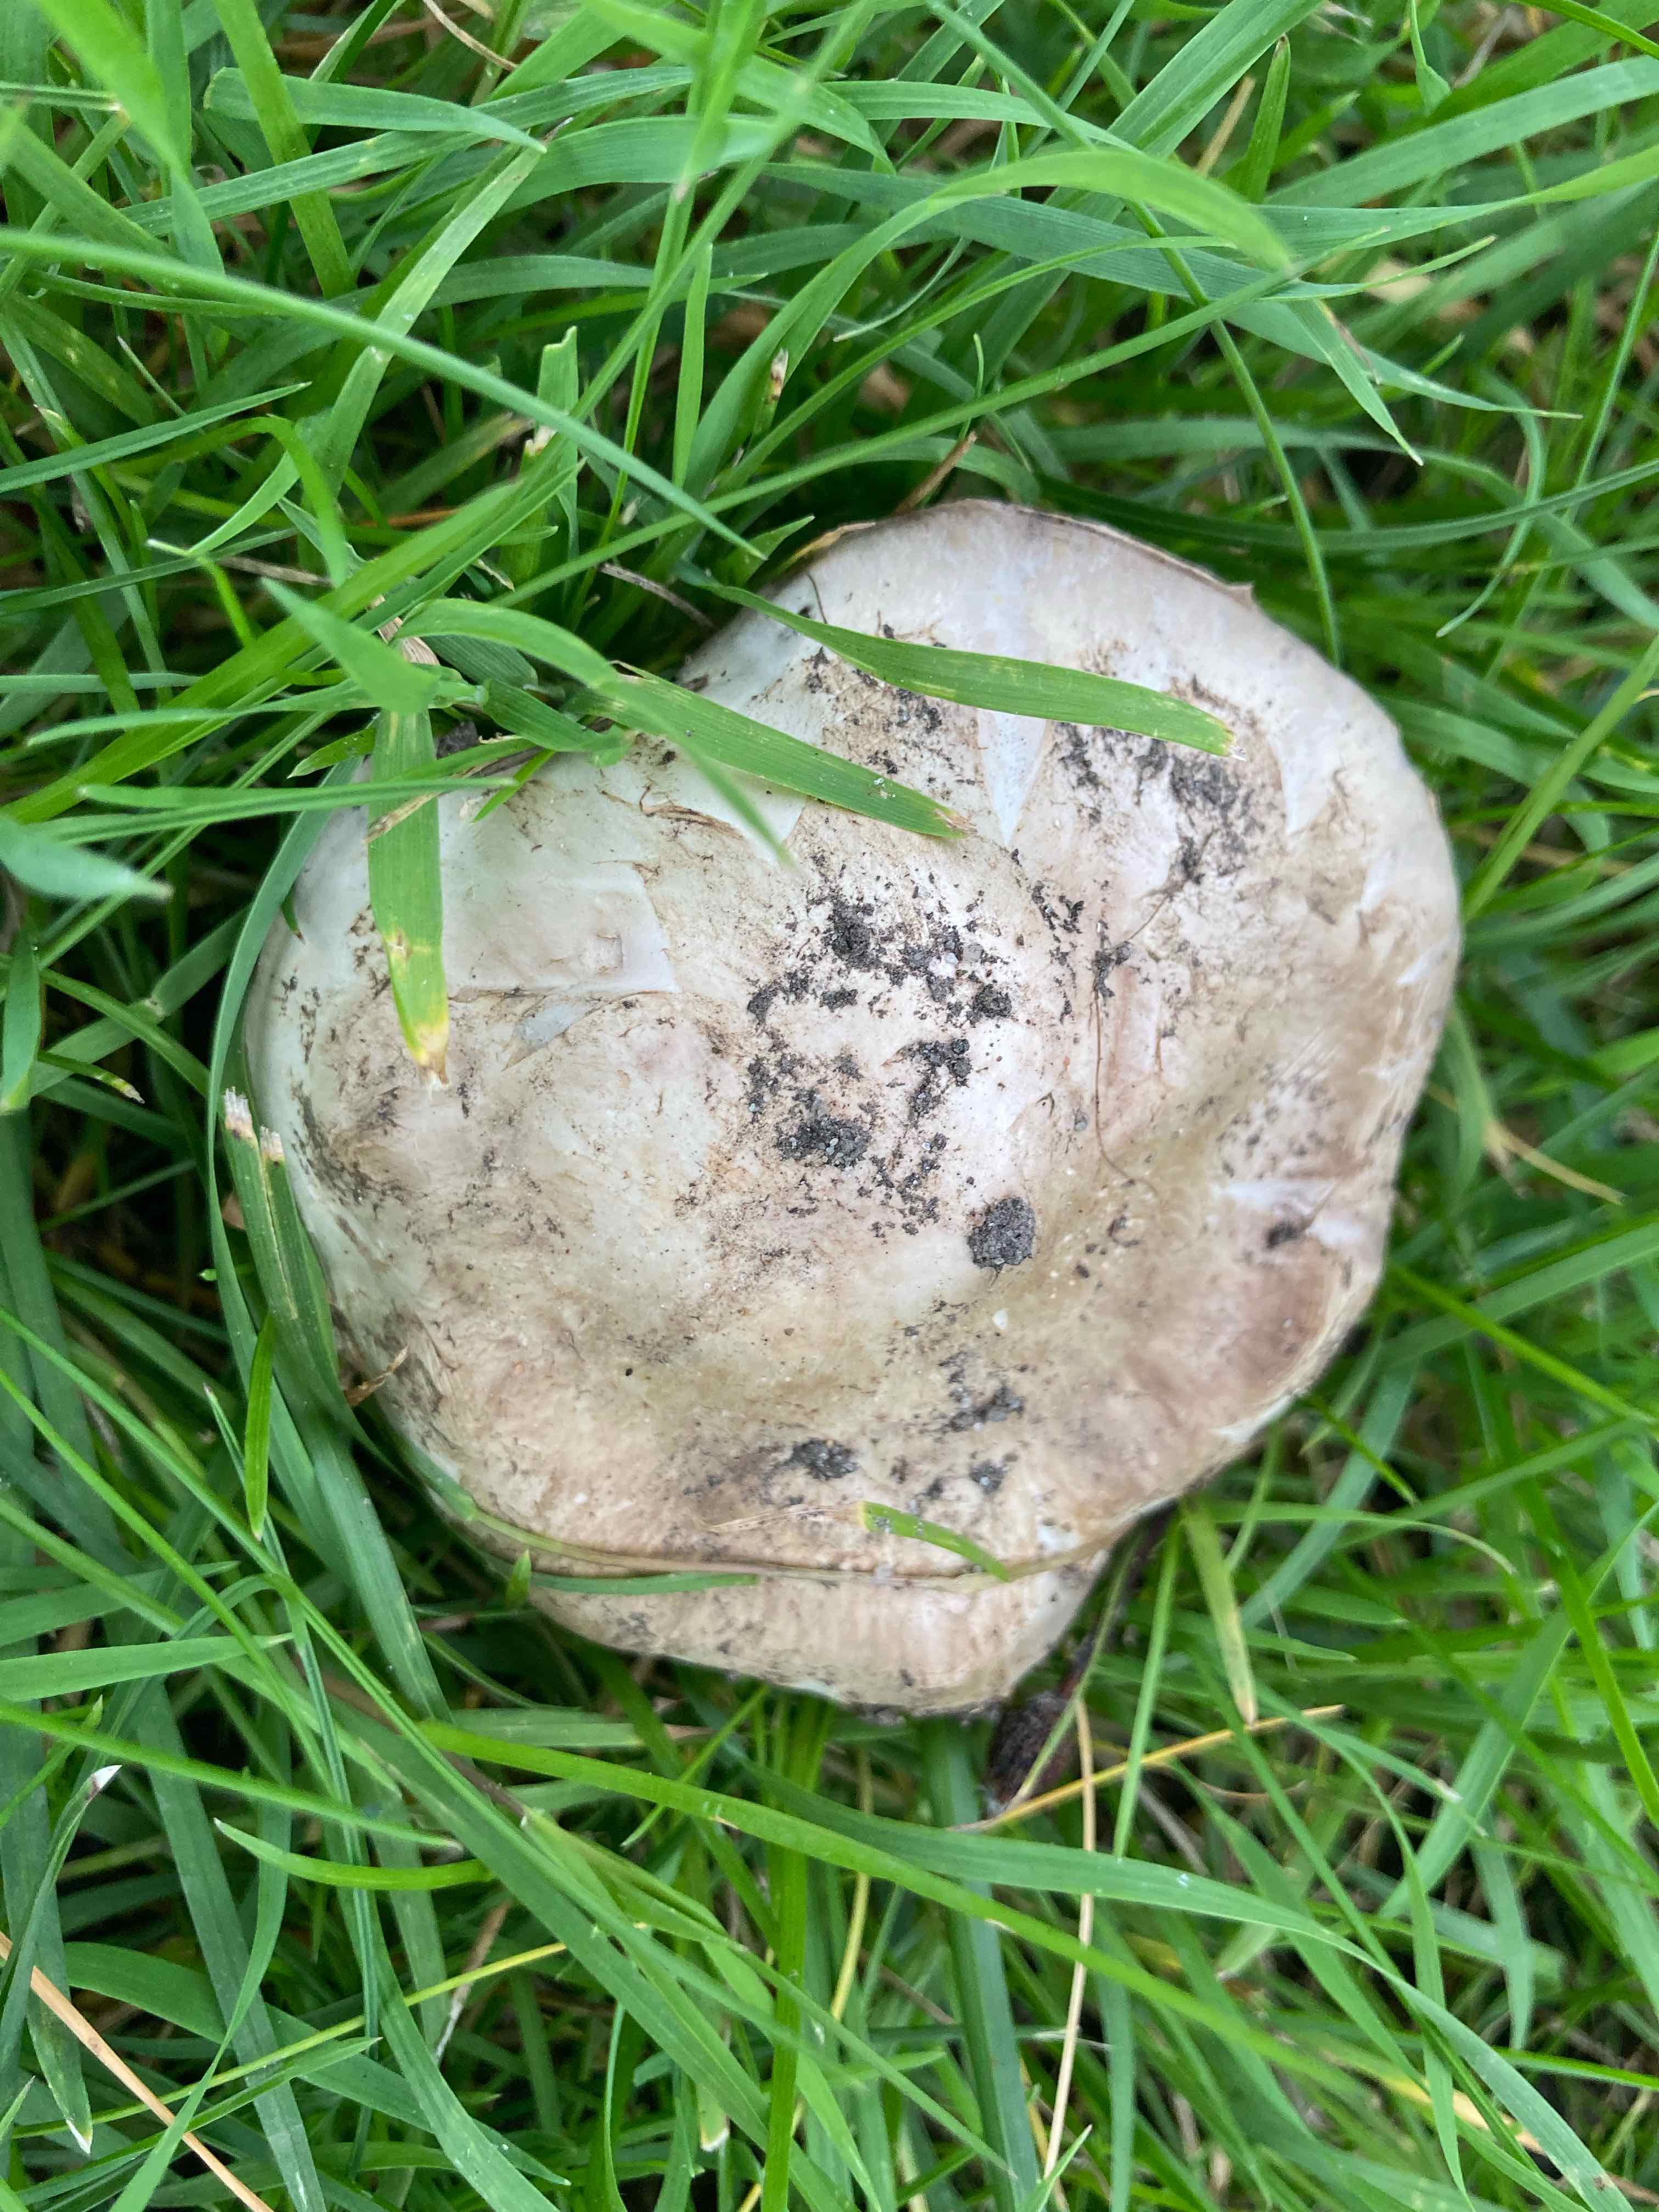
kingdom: Fungi
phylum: Basidiomycota
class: Agaricomycetes
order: Agaricales
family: Agaricaceae
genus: Agaricus
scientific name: Agaricus
